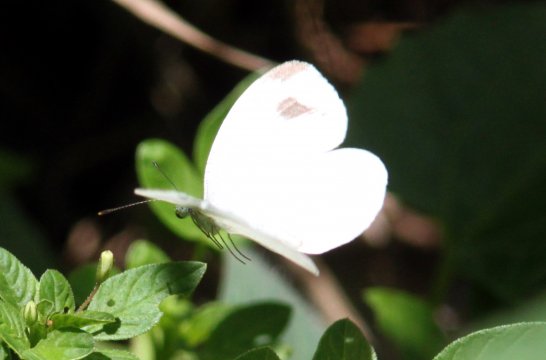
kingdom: Animalia
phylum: Arthropoda
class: Insecta
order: Lepidoptera
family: Pieridae
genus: Leptosia
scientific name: Leptosia nina
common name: Psyche
